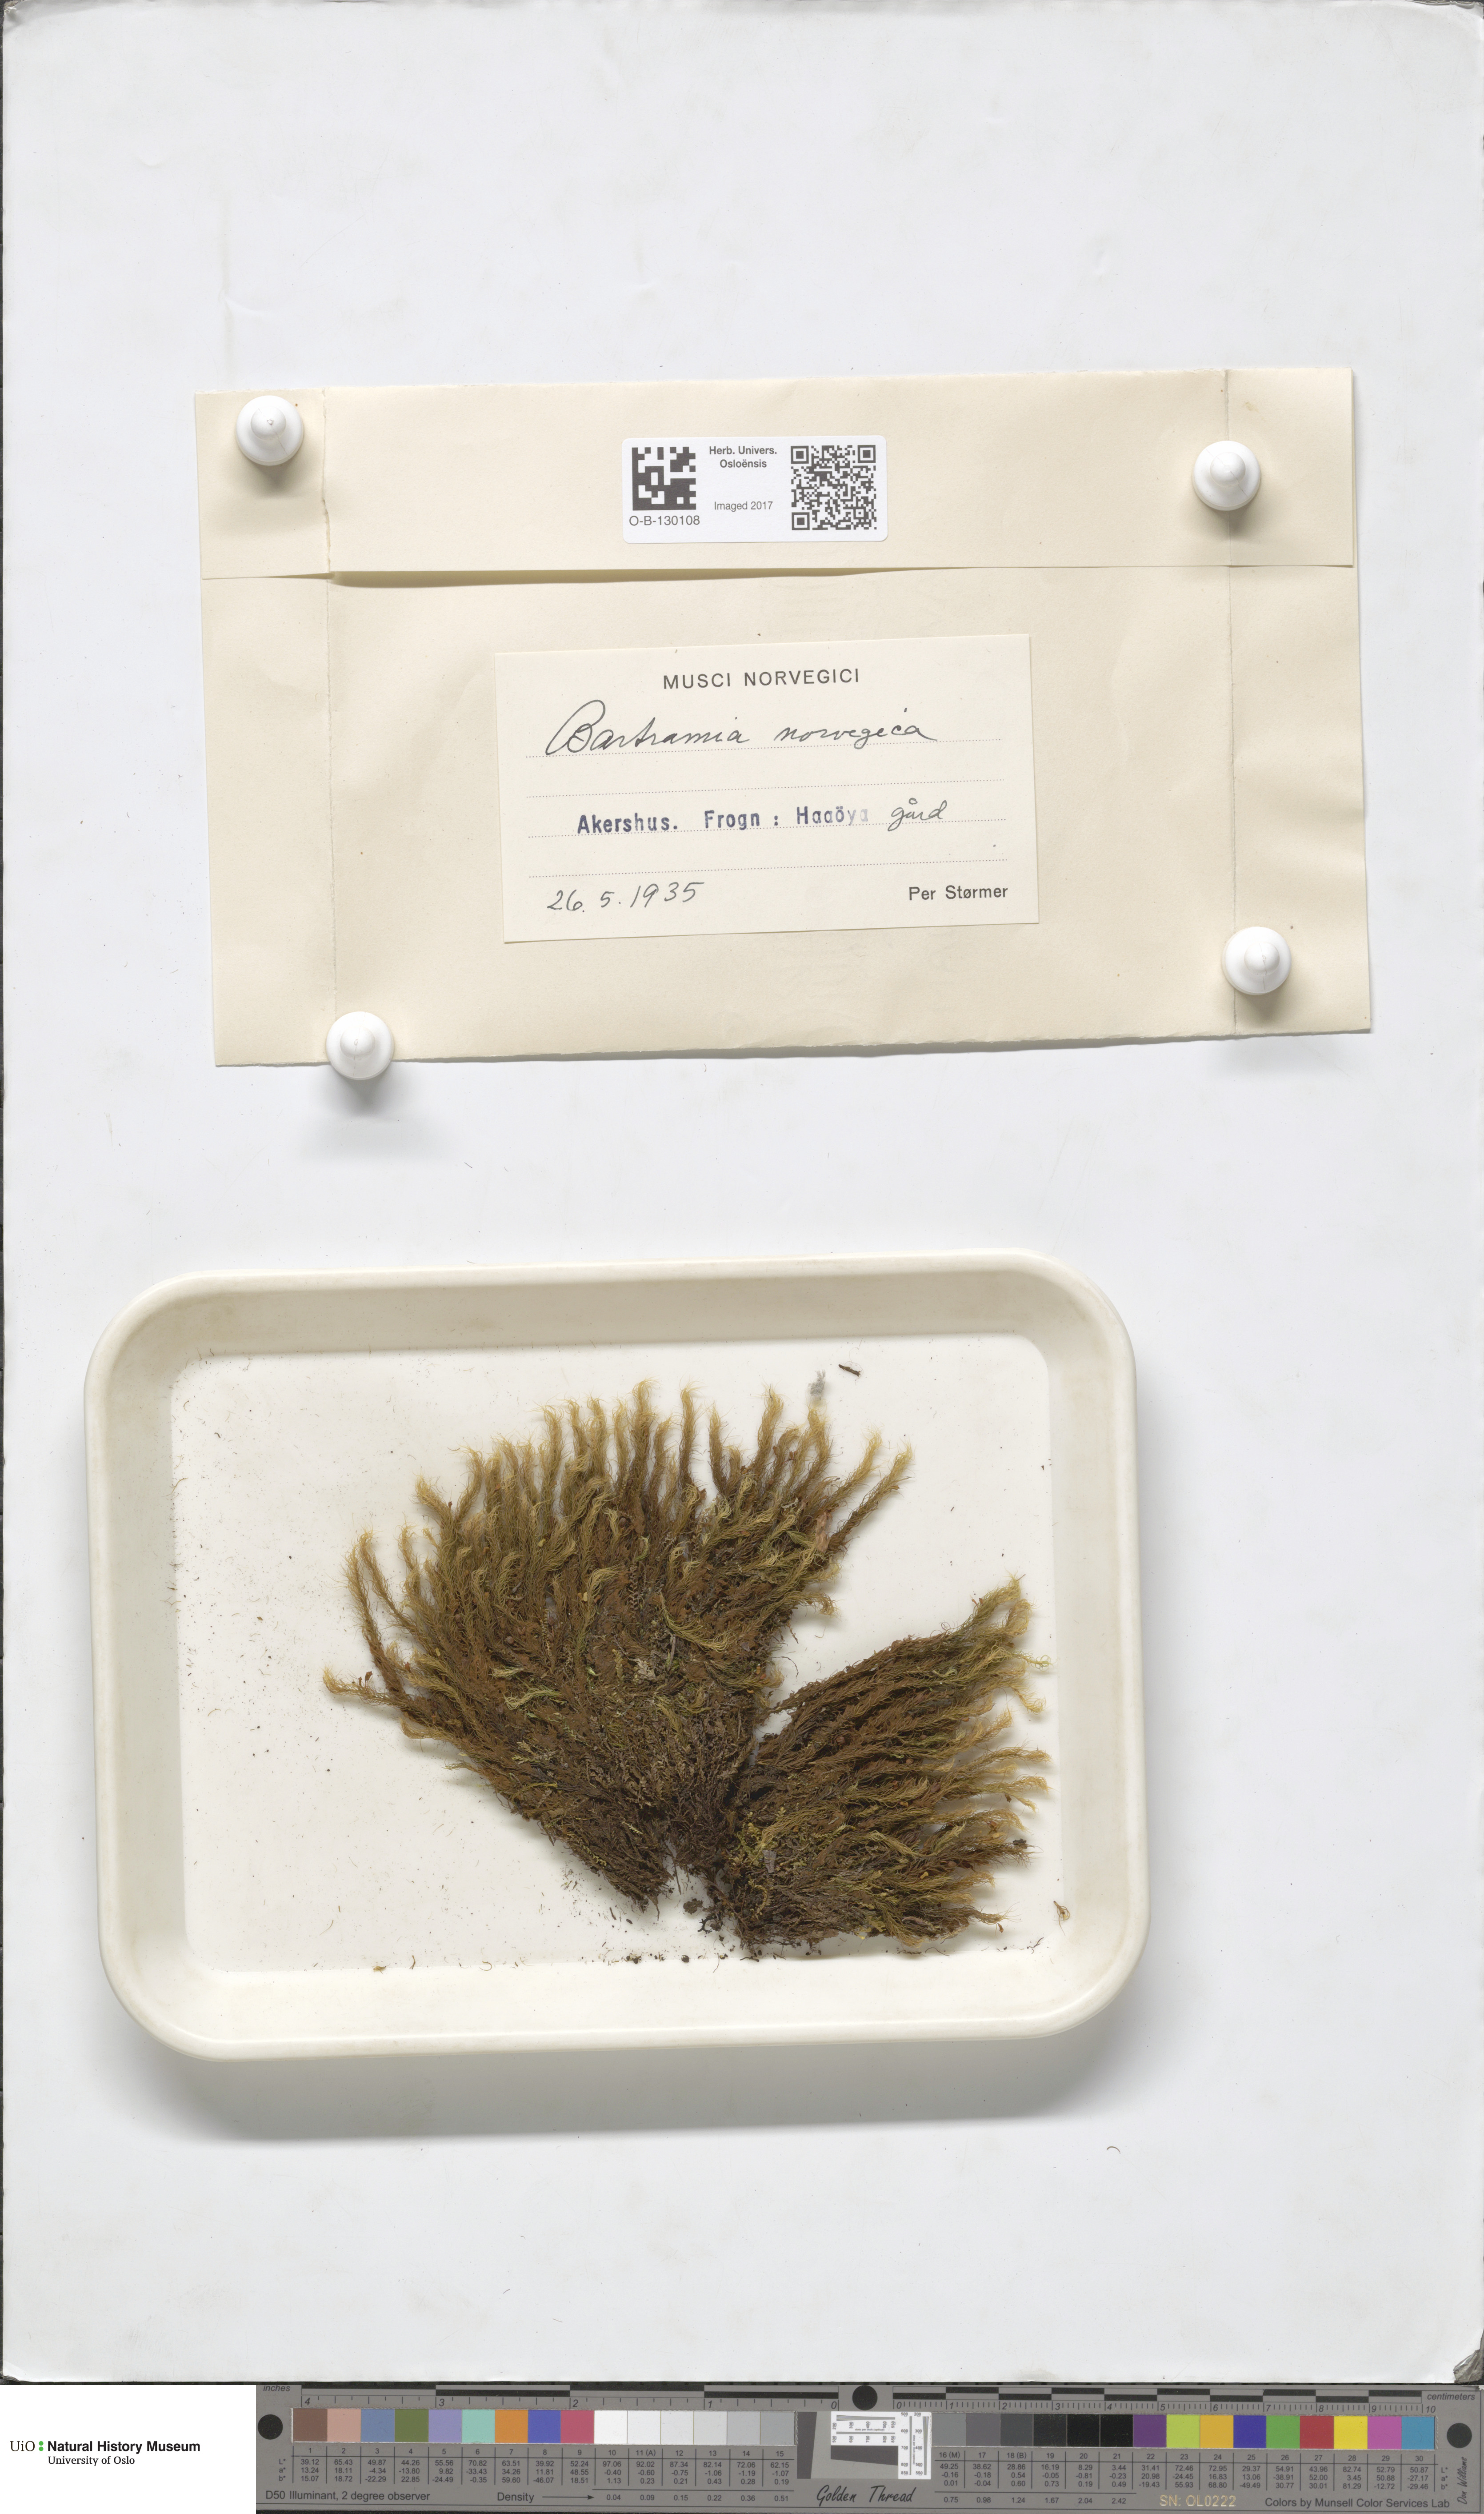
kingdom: Plantae
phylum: Bryophyta
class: Bryopsida
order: Bartramiales
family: Bartramiaceae
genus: Bartramia
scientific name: Bartramia halleriana
